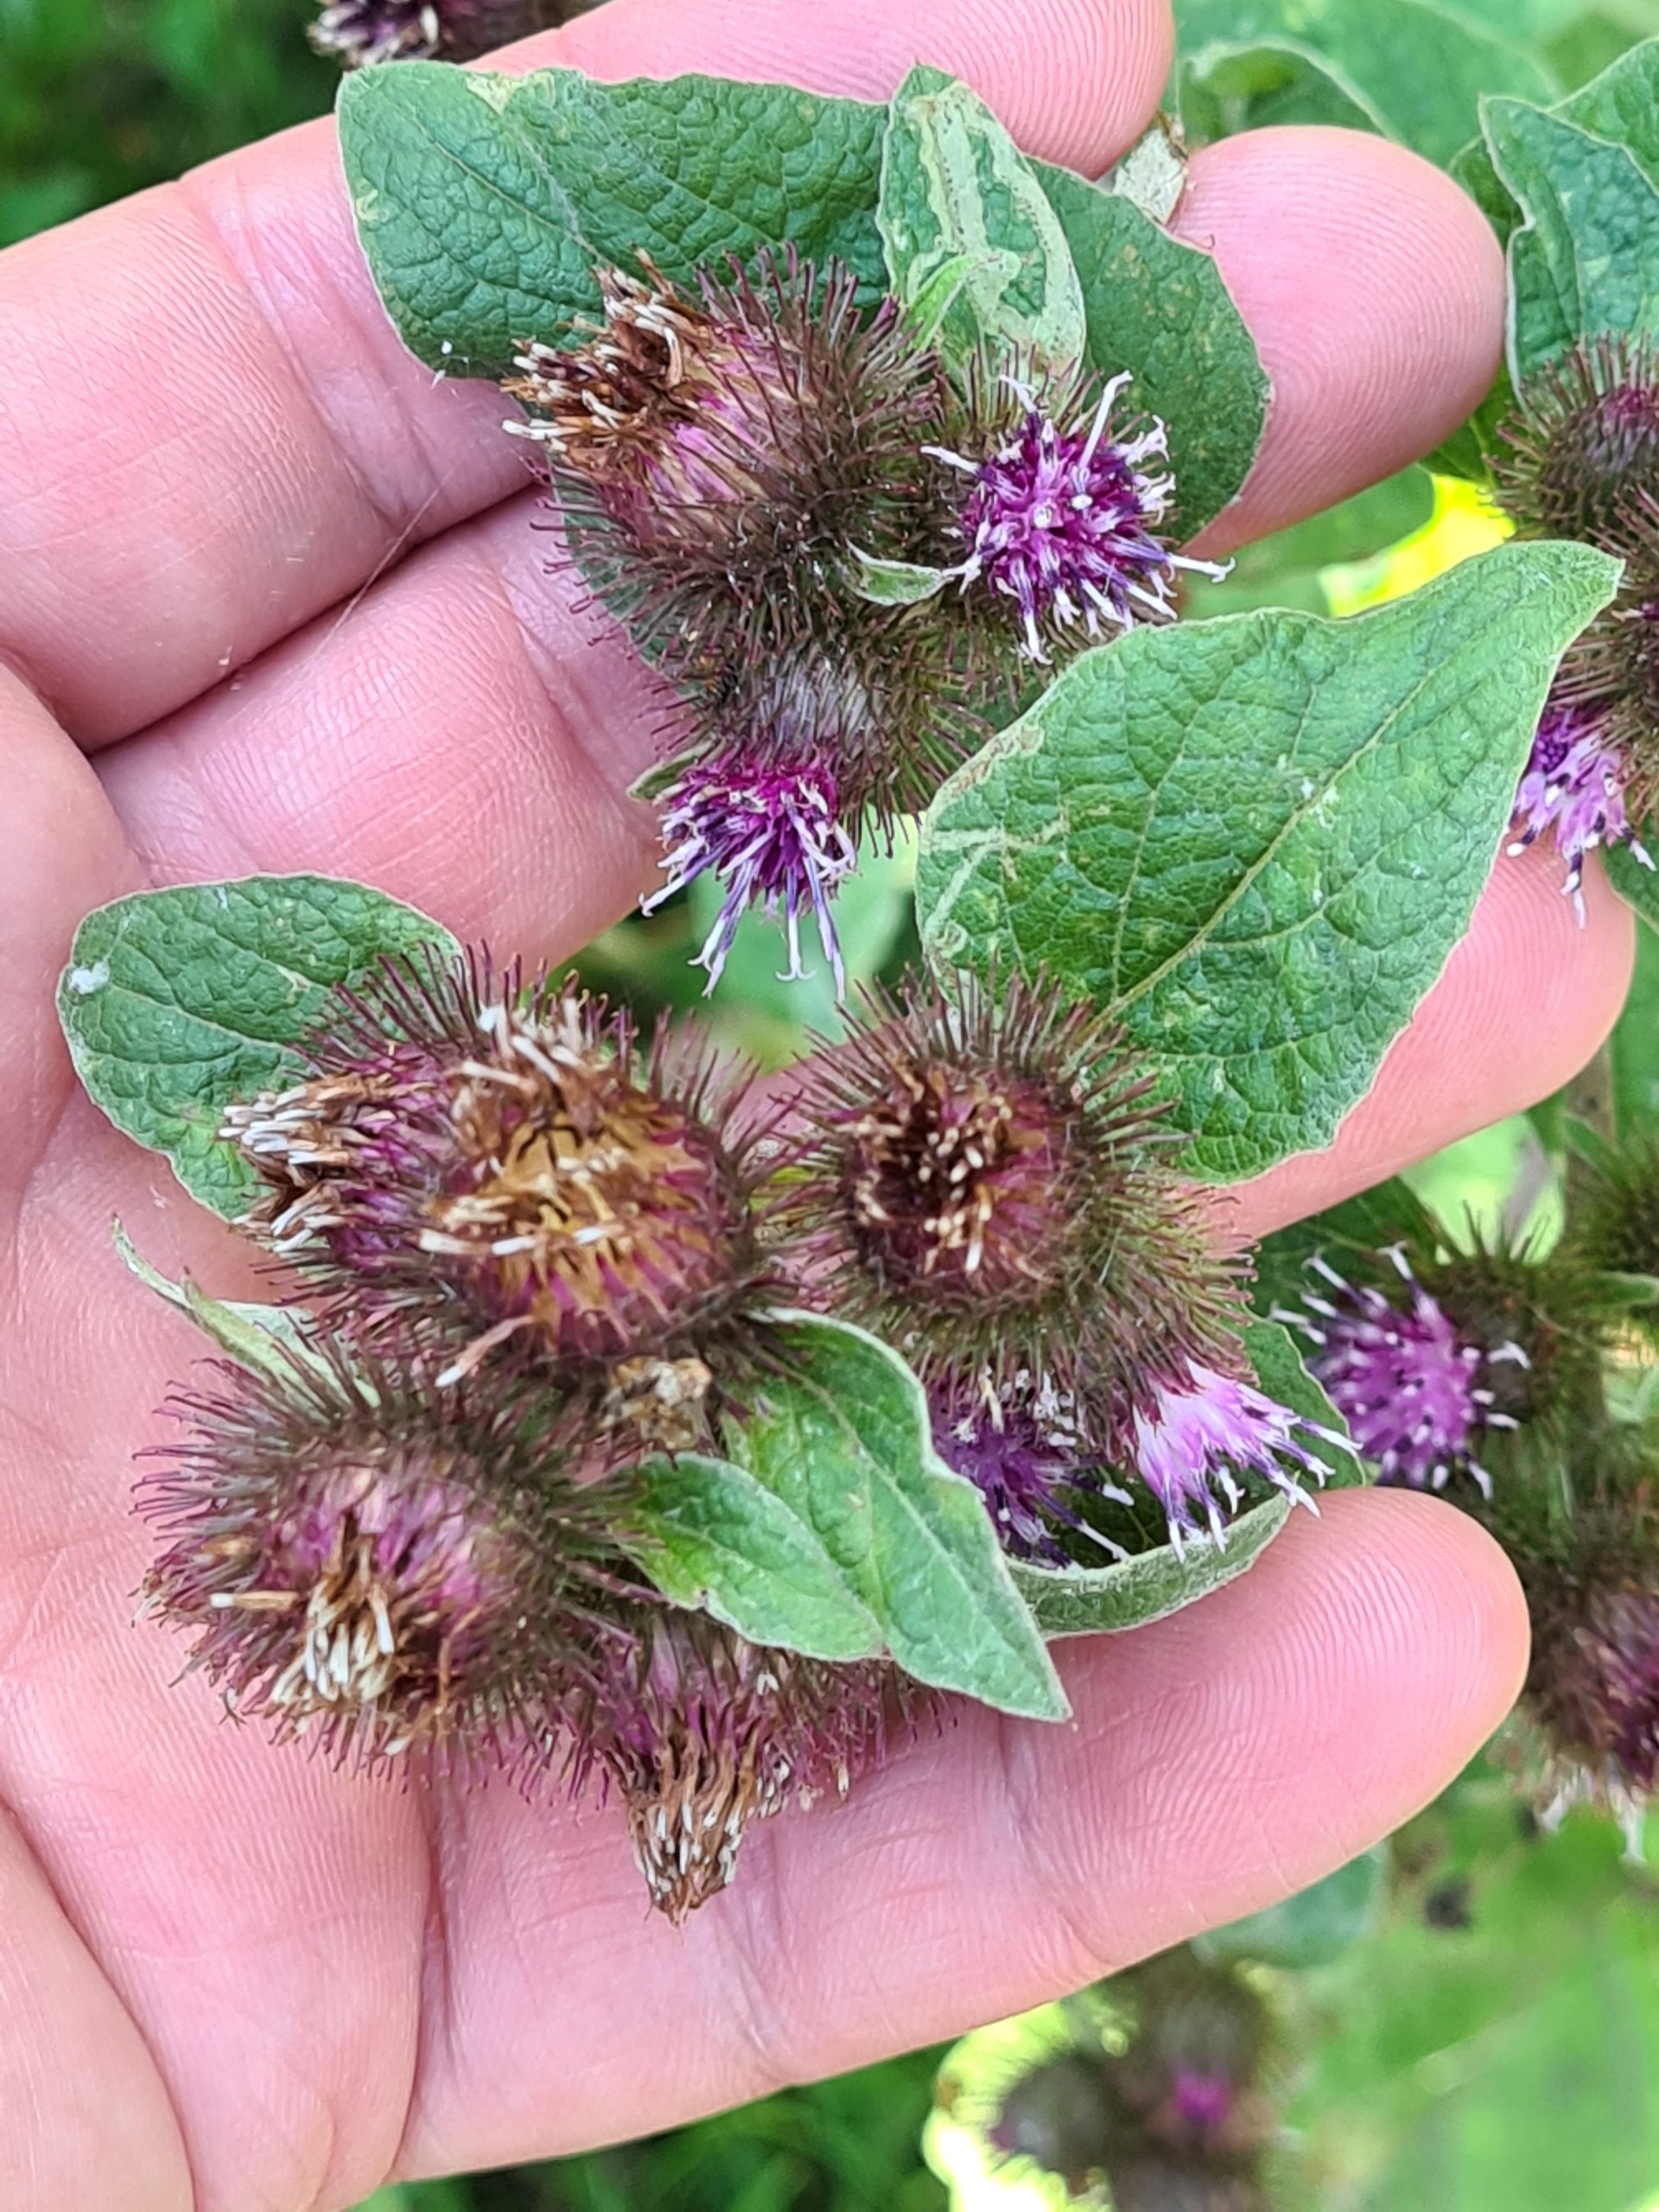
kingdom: Plantae
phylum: Tracheophyta
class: Magnoliopsida
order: Asterales
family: Asteraceae
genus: Arctium
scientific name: Arctium minus
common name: Liden burre
